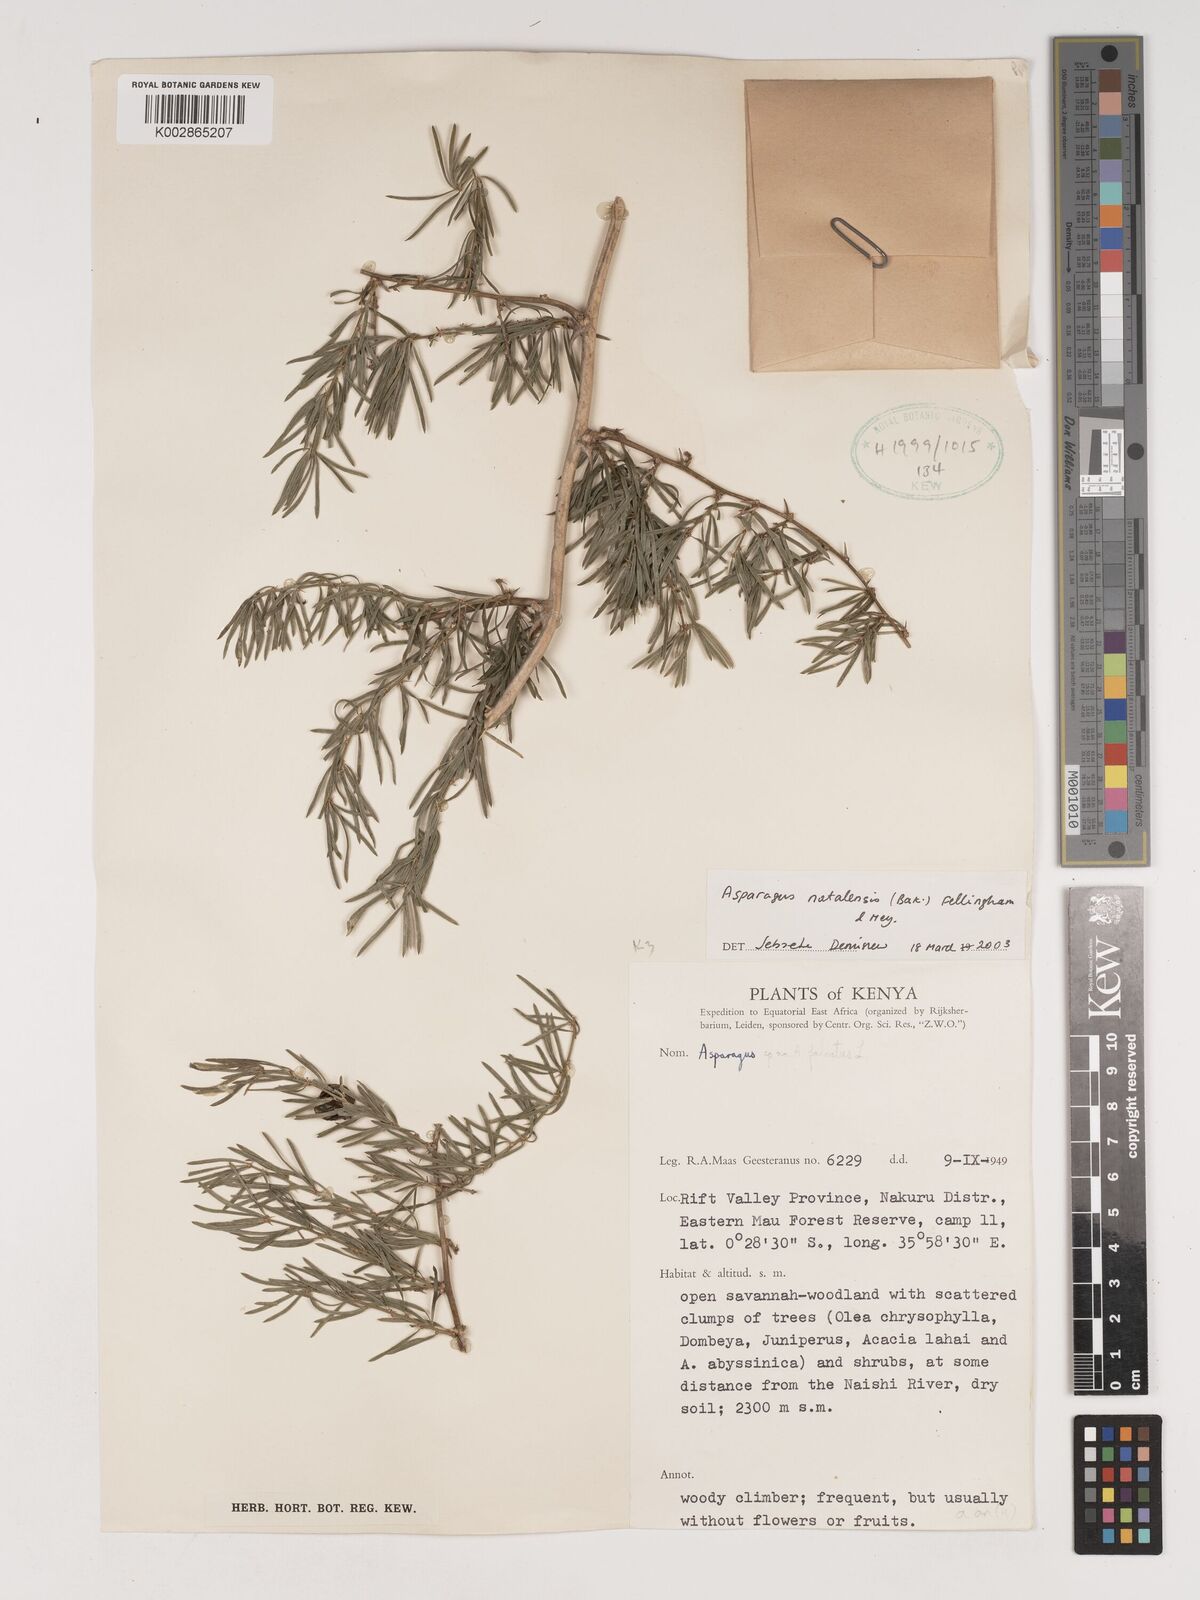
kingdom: Plantae
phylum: Tracheophyta
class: Liliopsida
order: Asparagales
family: Asparagaceae
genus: Asparagus
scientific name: Asparagus natalensis
